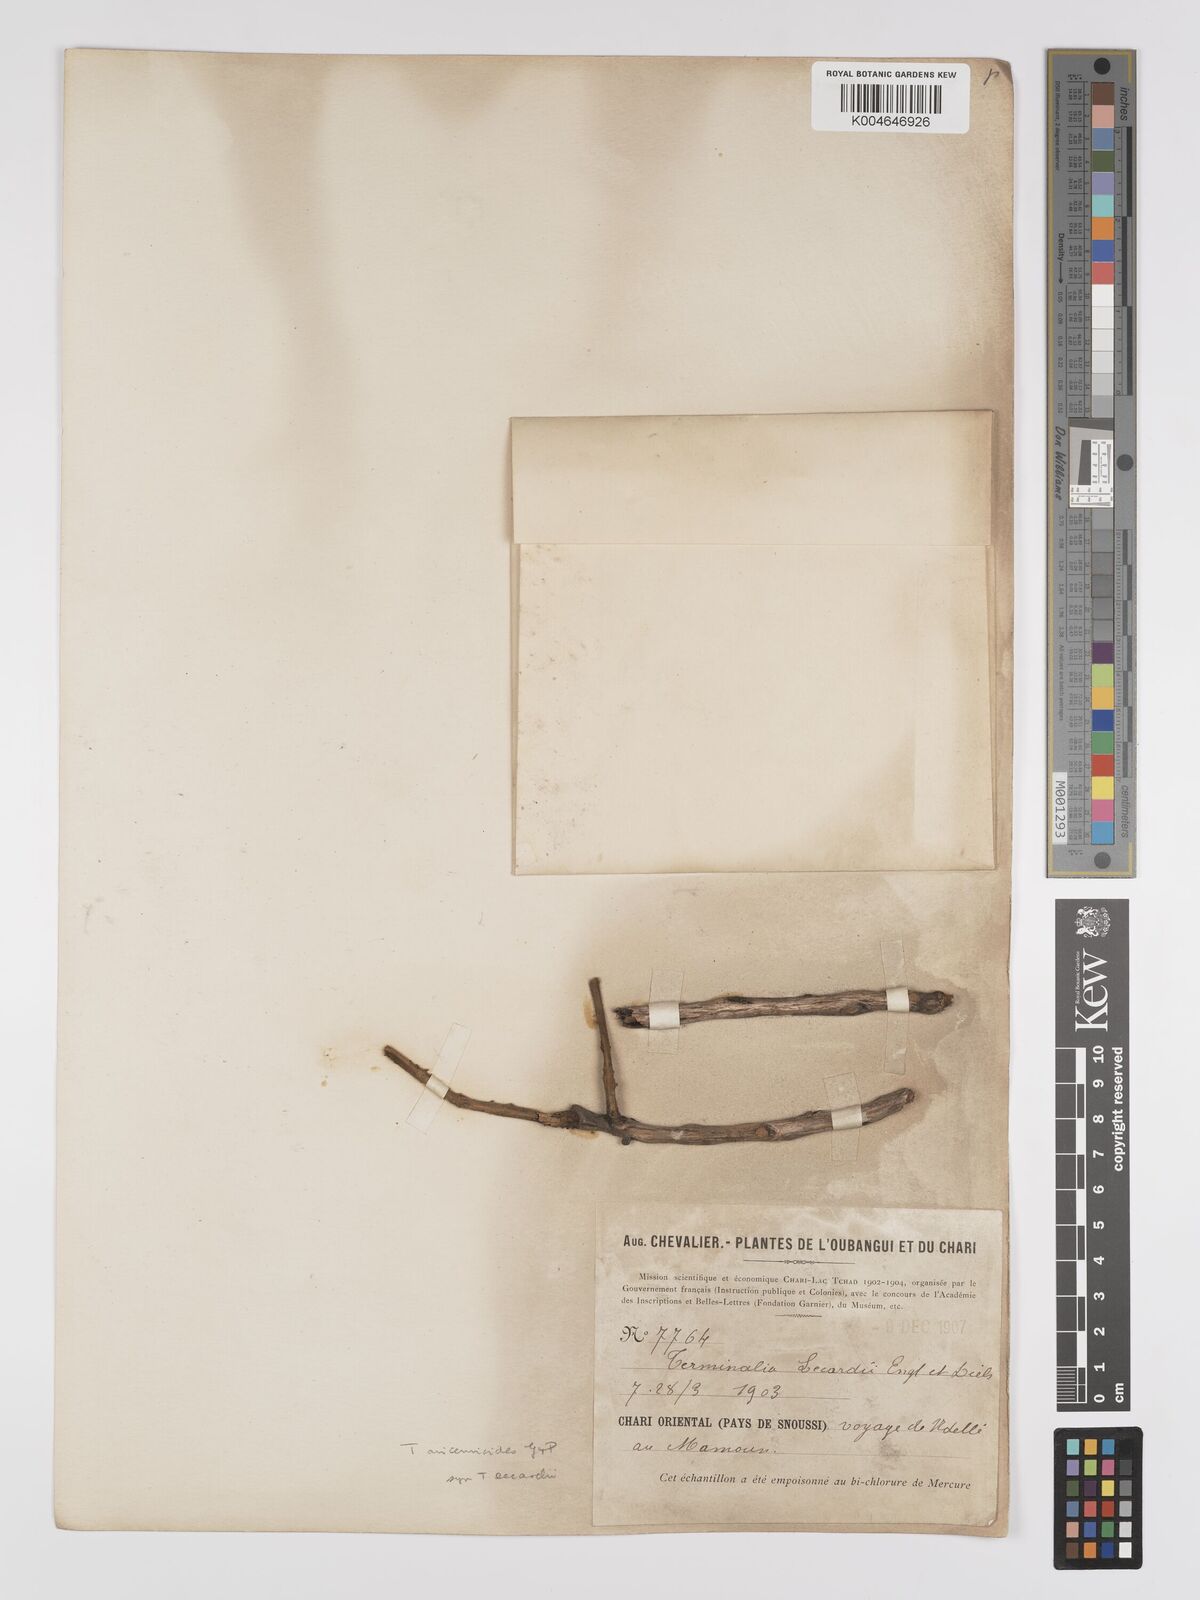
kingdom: Plantae
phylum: Tracheophyta
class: Magnoliopsida
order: Myrtales
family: Combretaceae
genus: Terminalia
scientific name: Terminalia avicennioides
